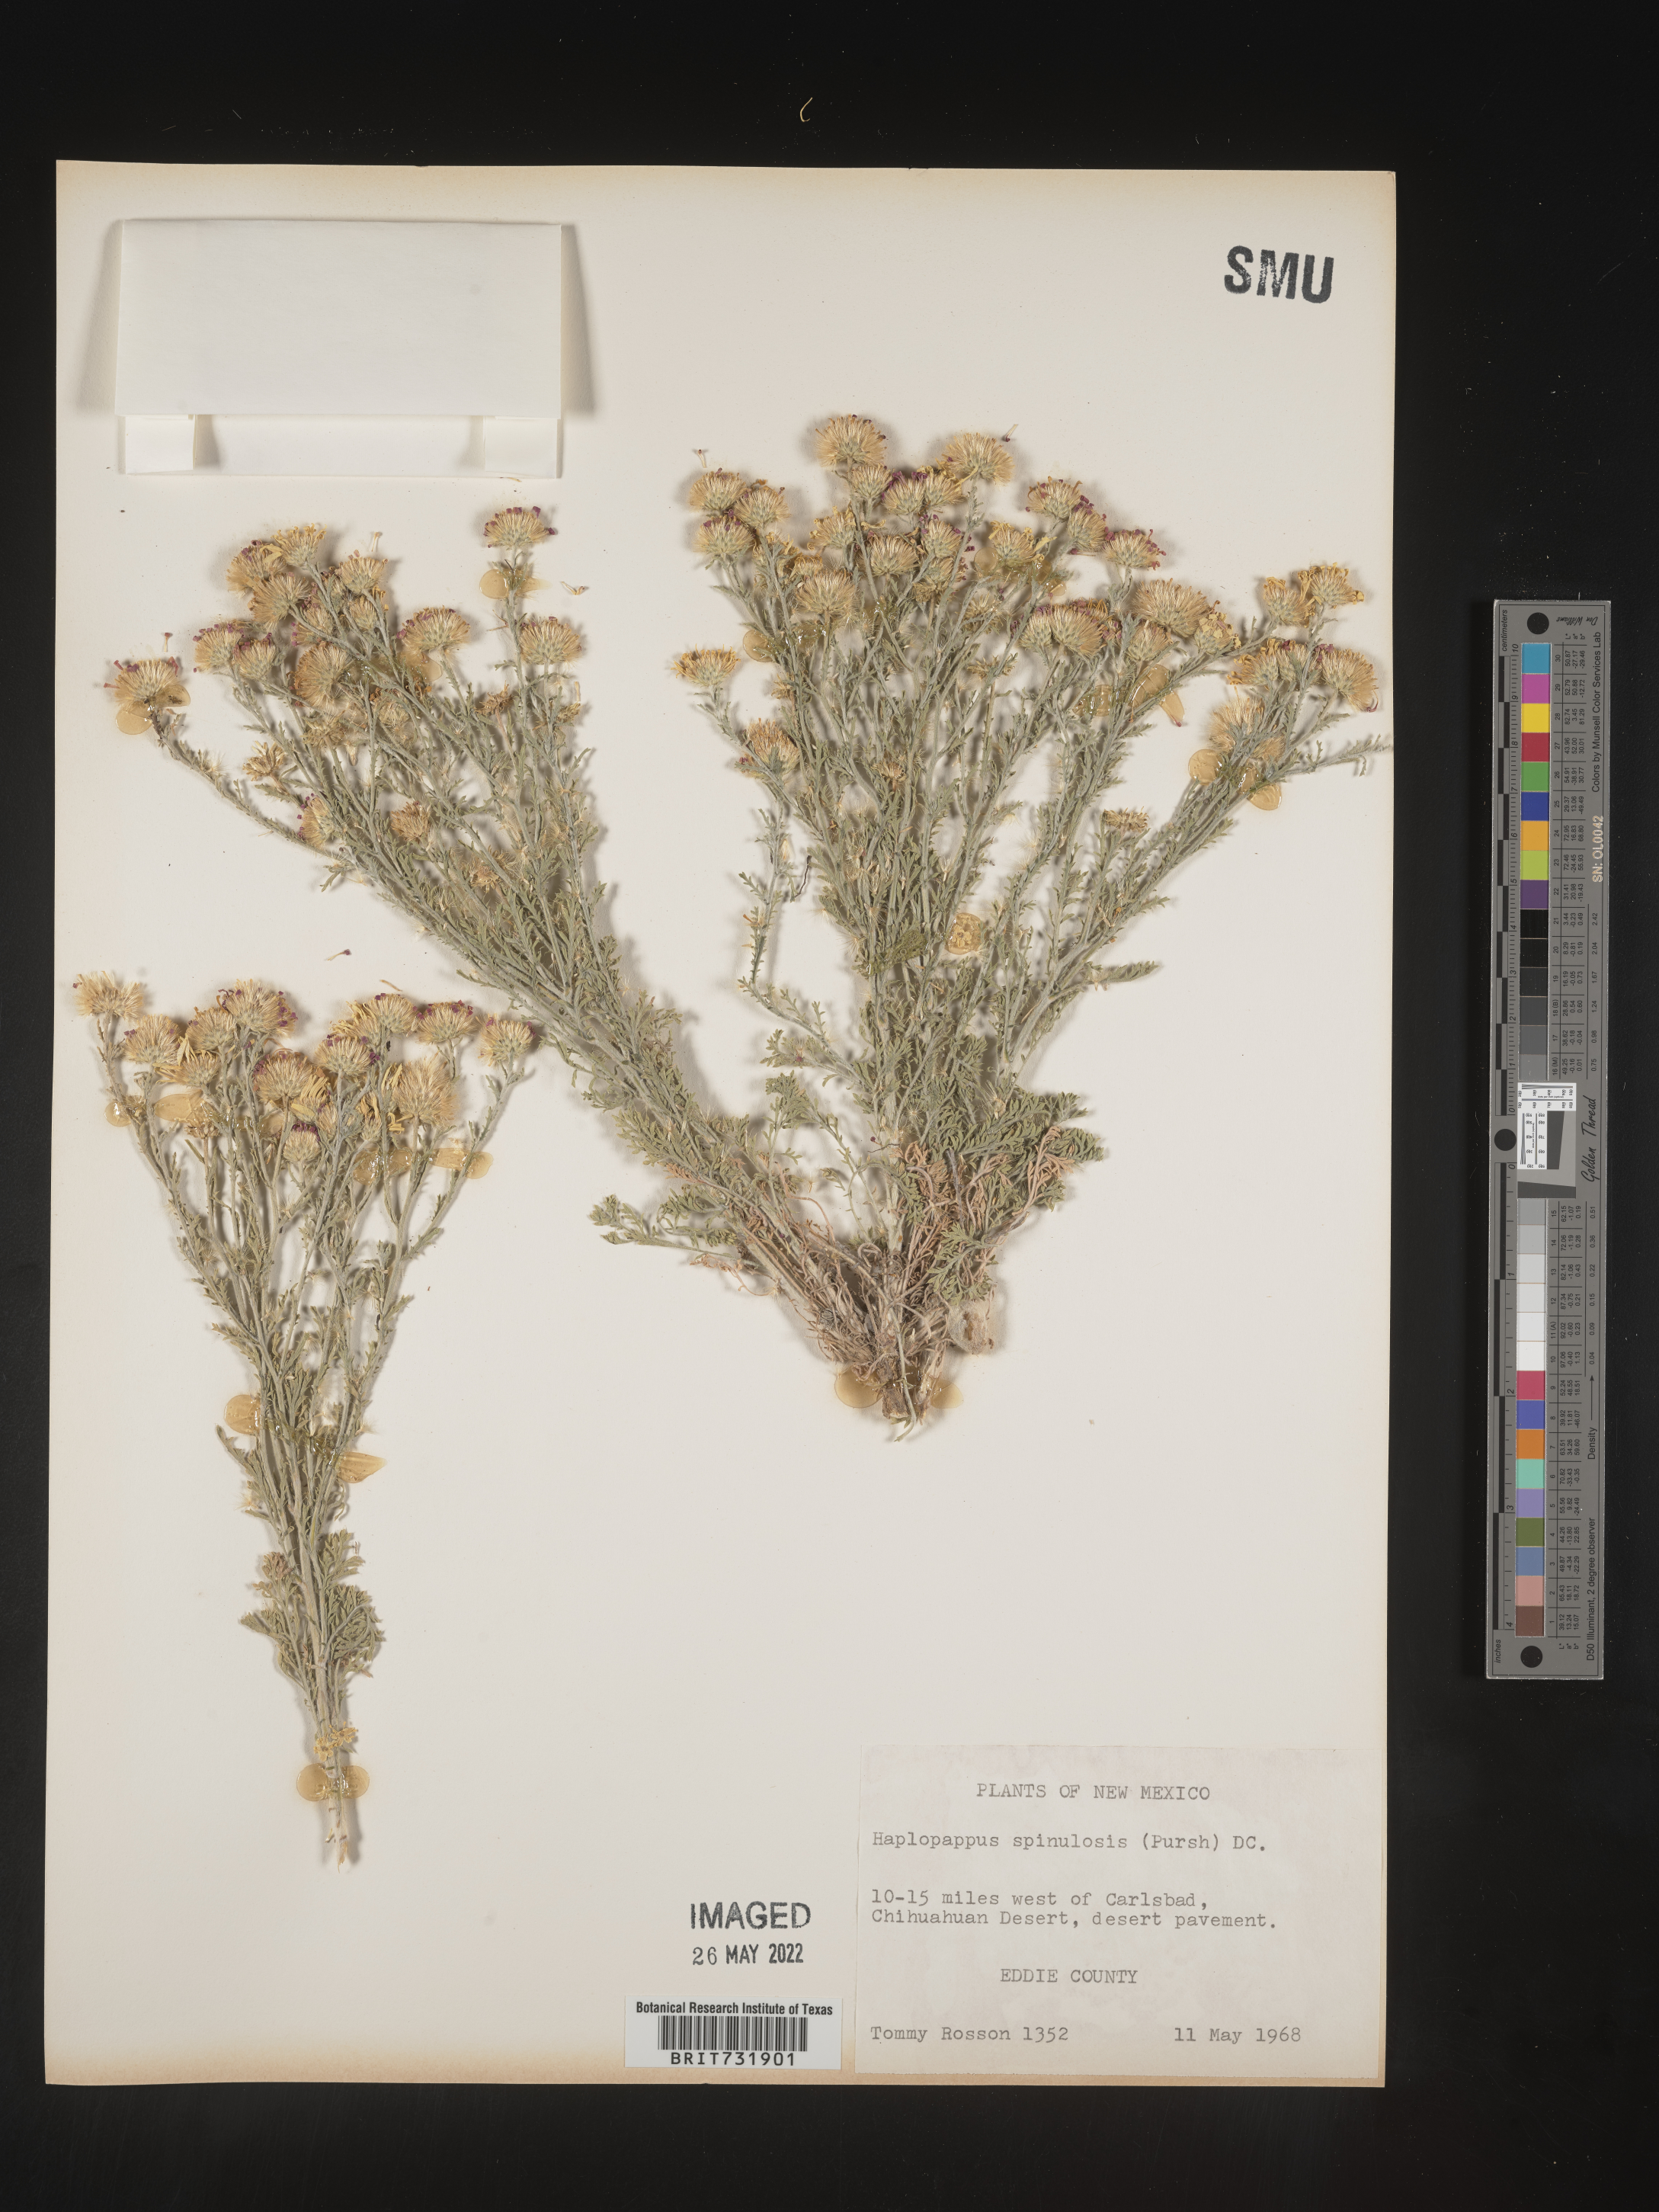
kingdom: Plantae
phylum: Tracheophyta
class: Magnoliopsida
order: Asterales
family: Asteraceae
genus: Xanthisma
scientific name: Xanthisma spinulosum
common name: Spiny goldenweed
